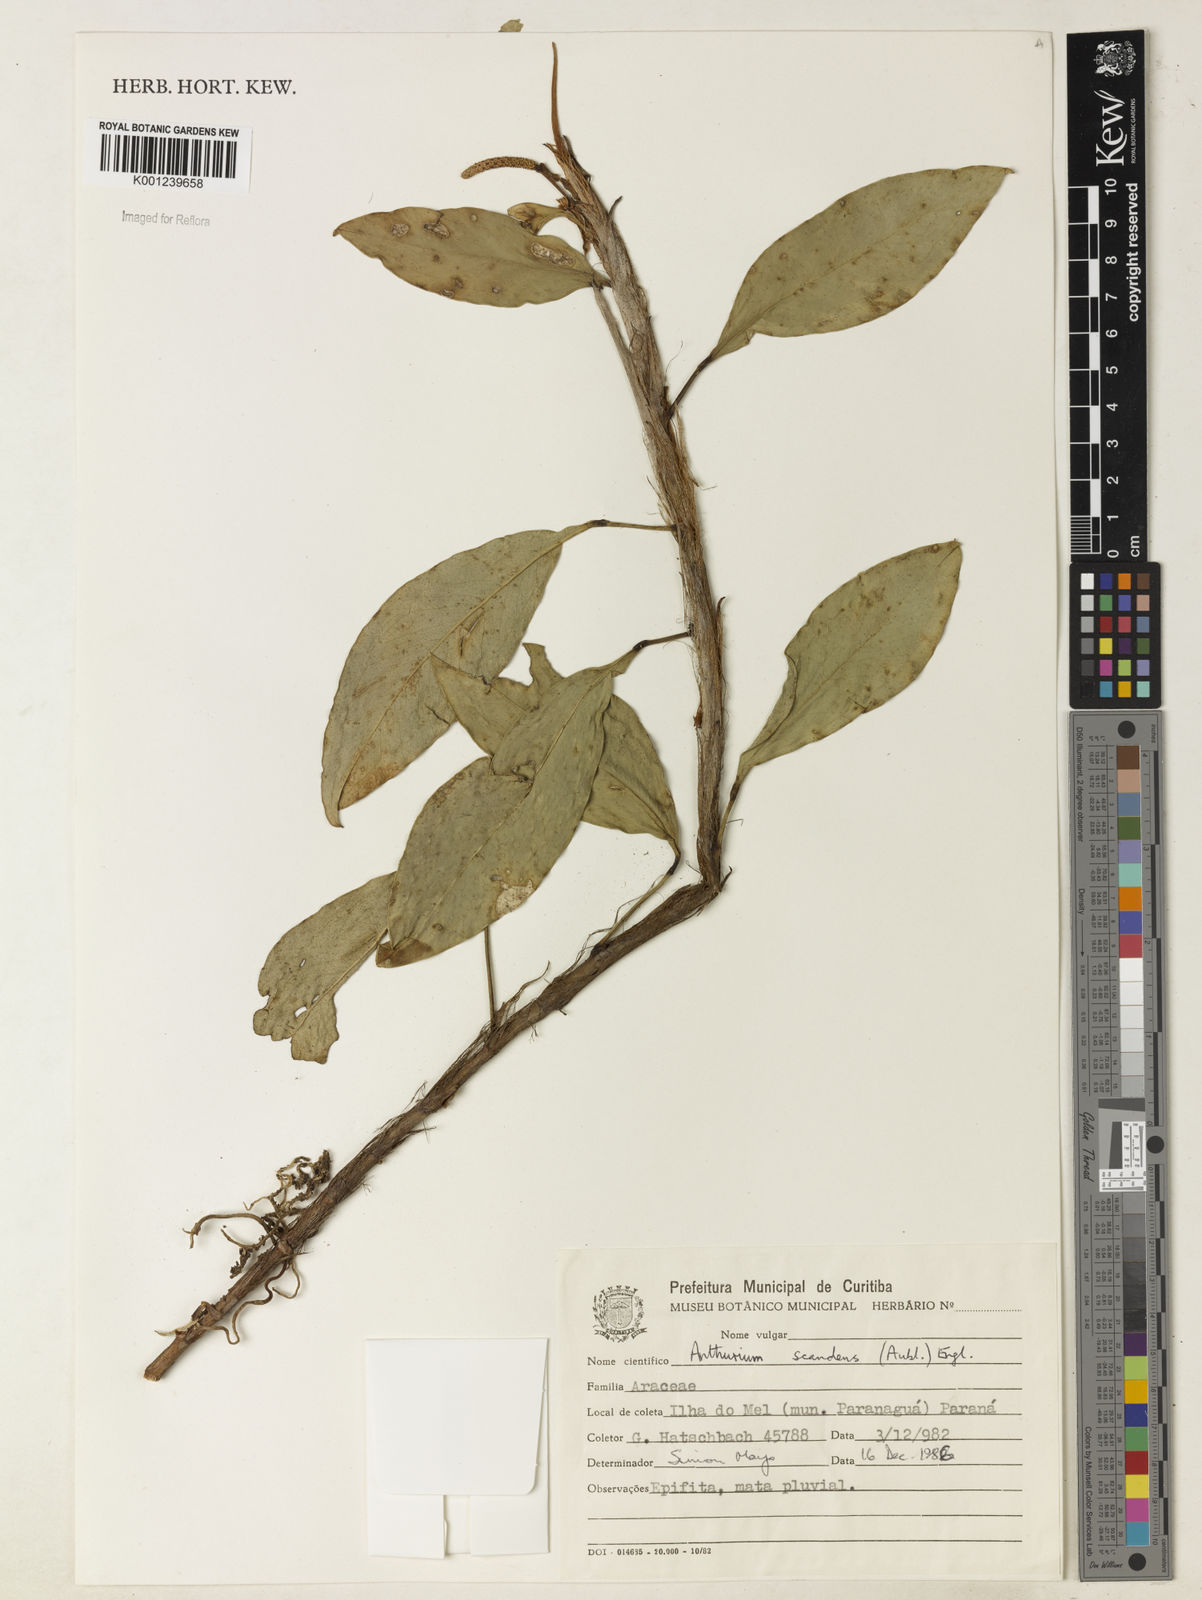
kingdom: Plantae
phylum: Tracheophyta
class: Liliopsida
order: Alismatales
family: Araceae
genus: Anthurium
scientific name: Anthurium scandens
